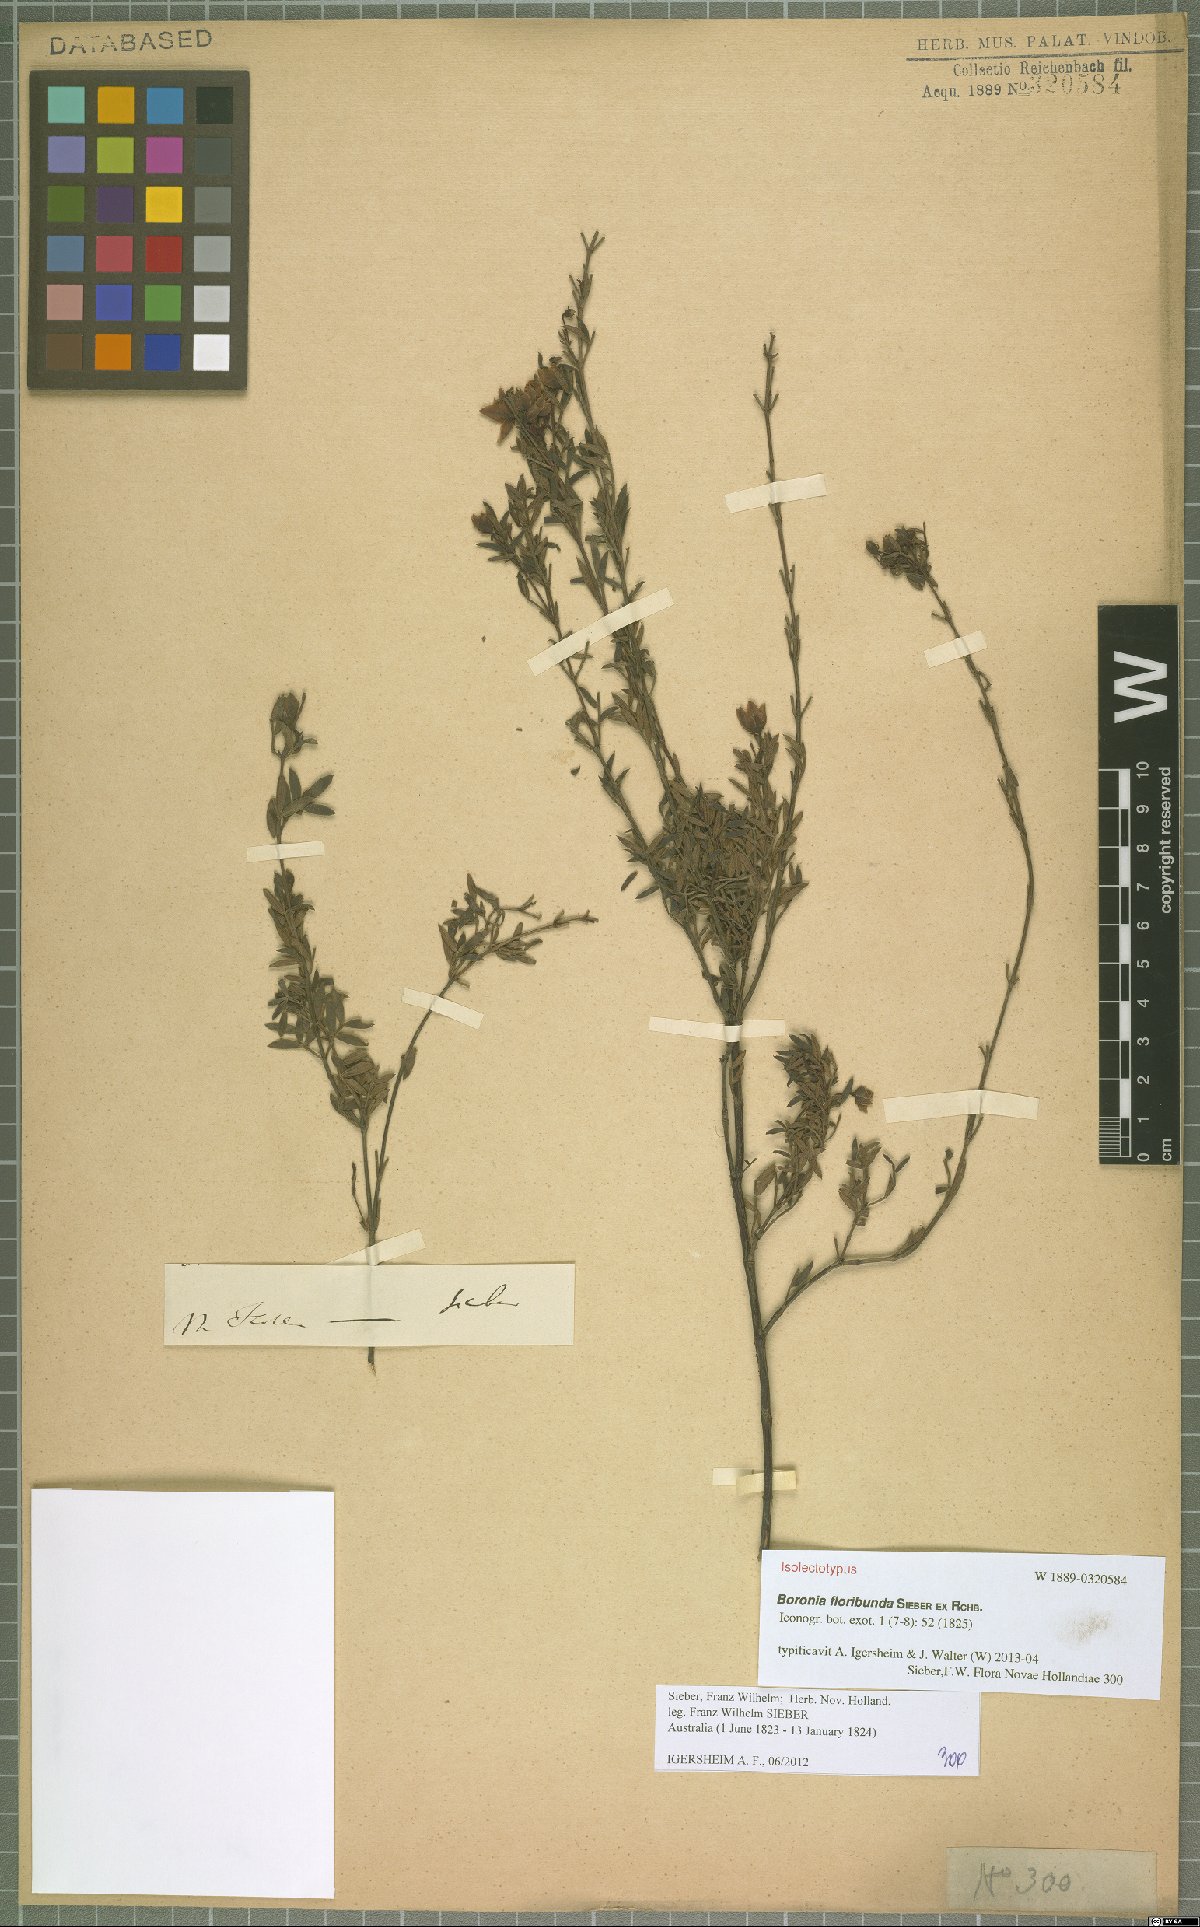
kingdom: Plantae
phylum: Tracheophyta
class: Magnoliopsida
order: Sapindales
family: Rutaceae
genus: Boronia
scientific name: Boronia floribunda
